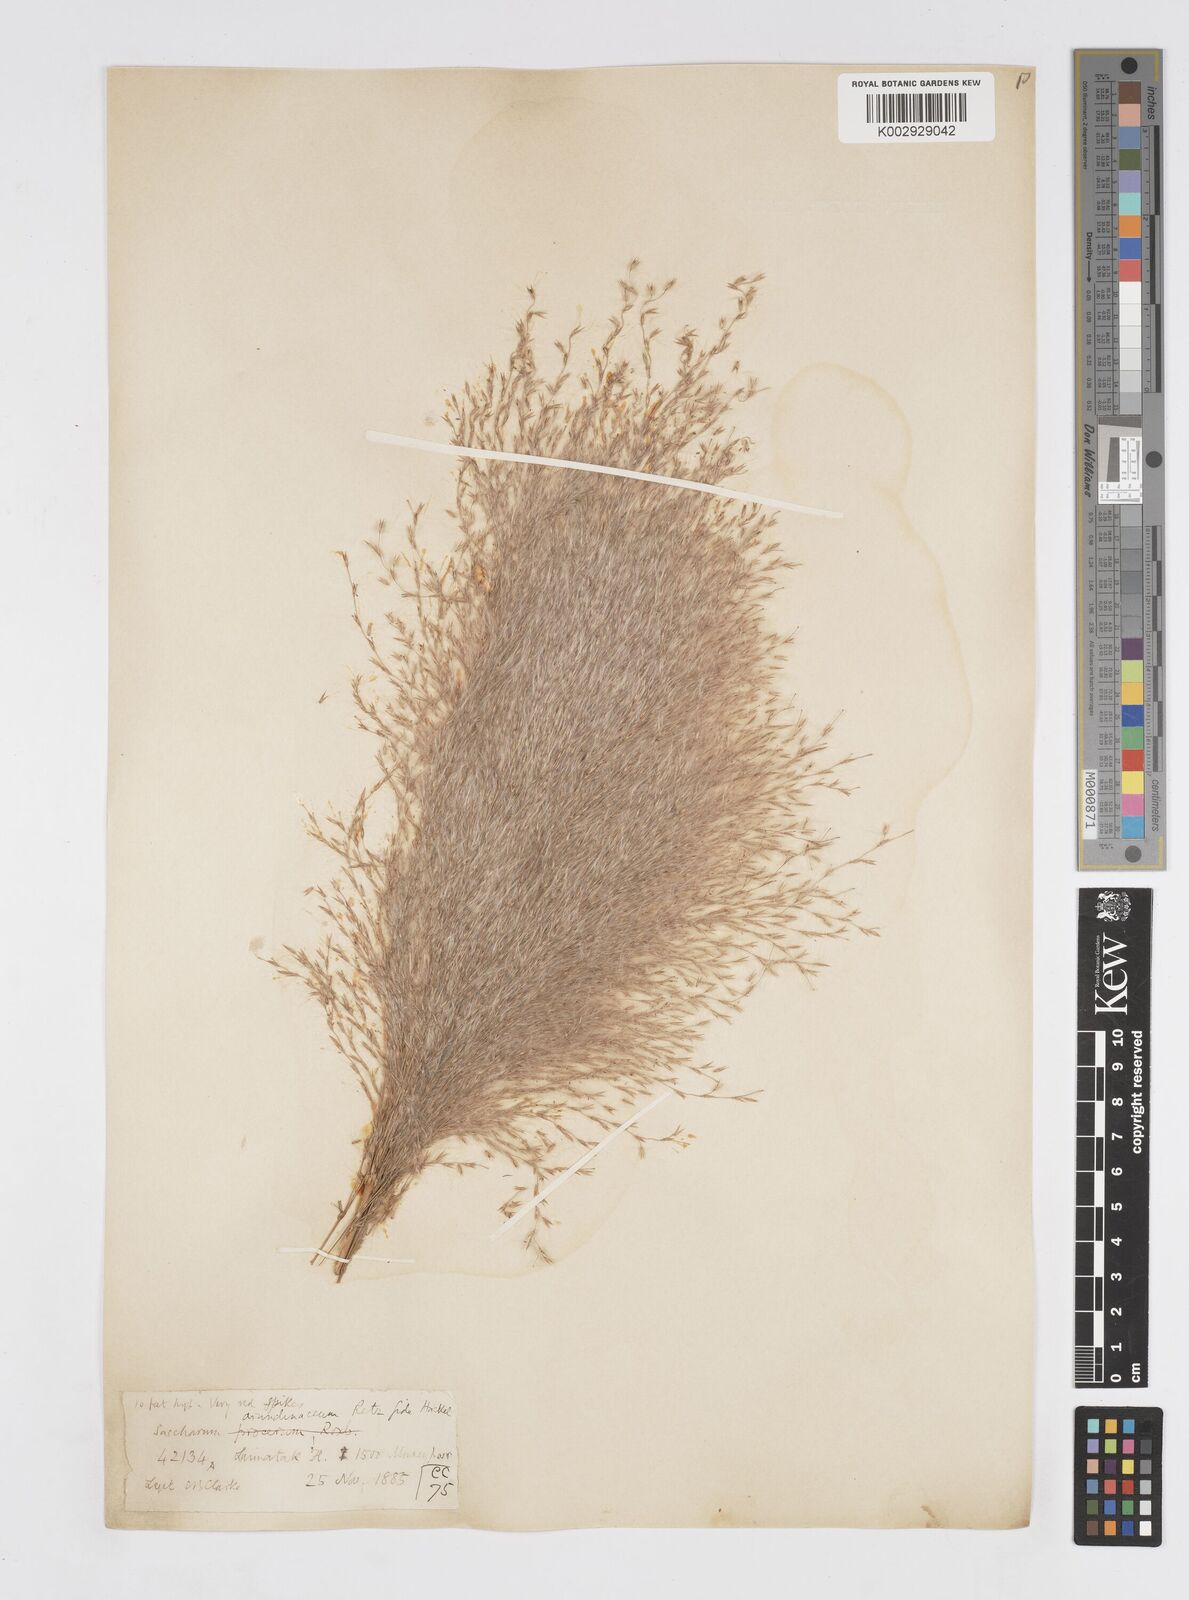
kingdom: Plantae
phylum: Tracheophyta
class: Liliopsida
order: Poales
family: Poaceae
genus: Tripidium
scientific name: Tripidium arundinaceum
